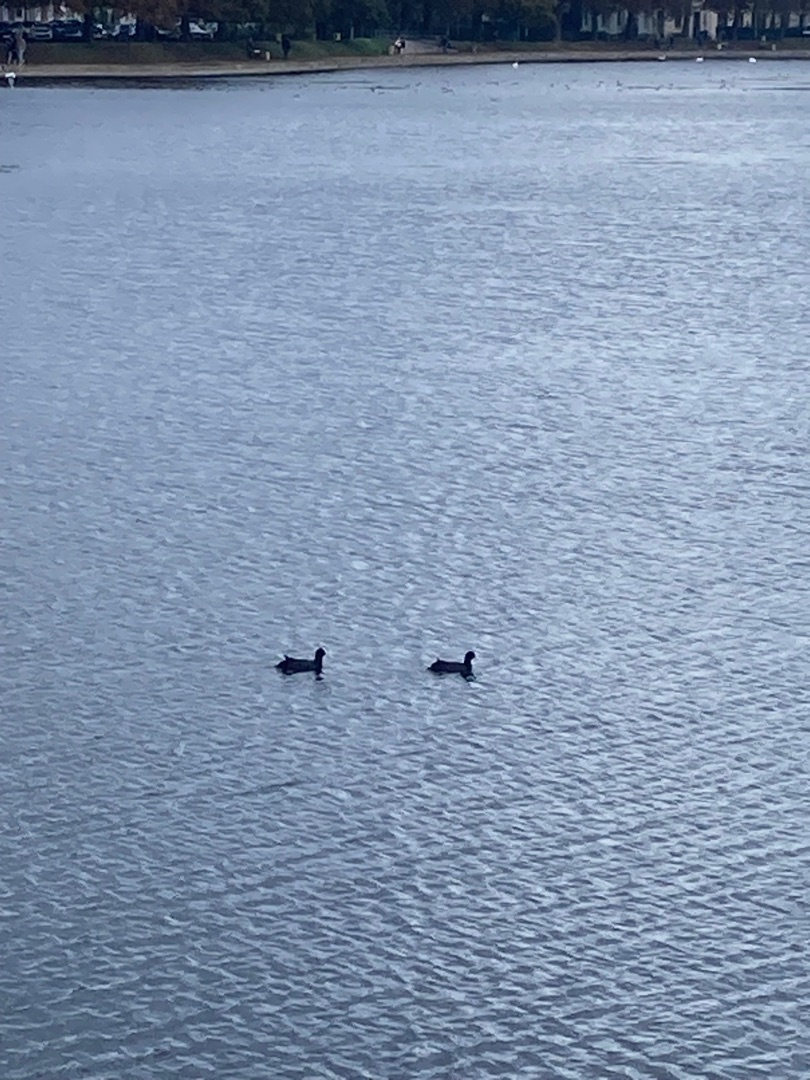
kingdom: Animalia
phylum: Chordata
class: Aves
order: Gruiformes
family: Rallidae
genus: Fulica
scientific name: Fulica atra
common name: Blishøne
